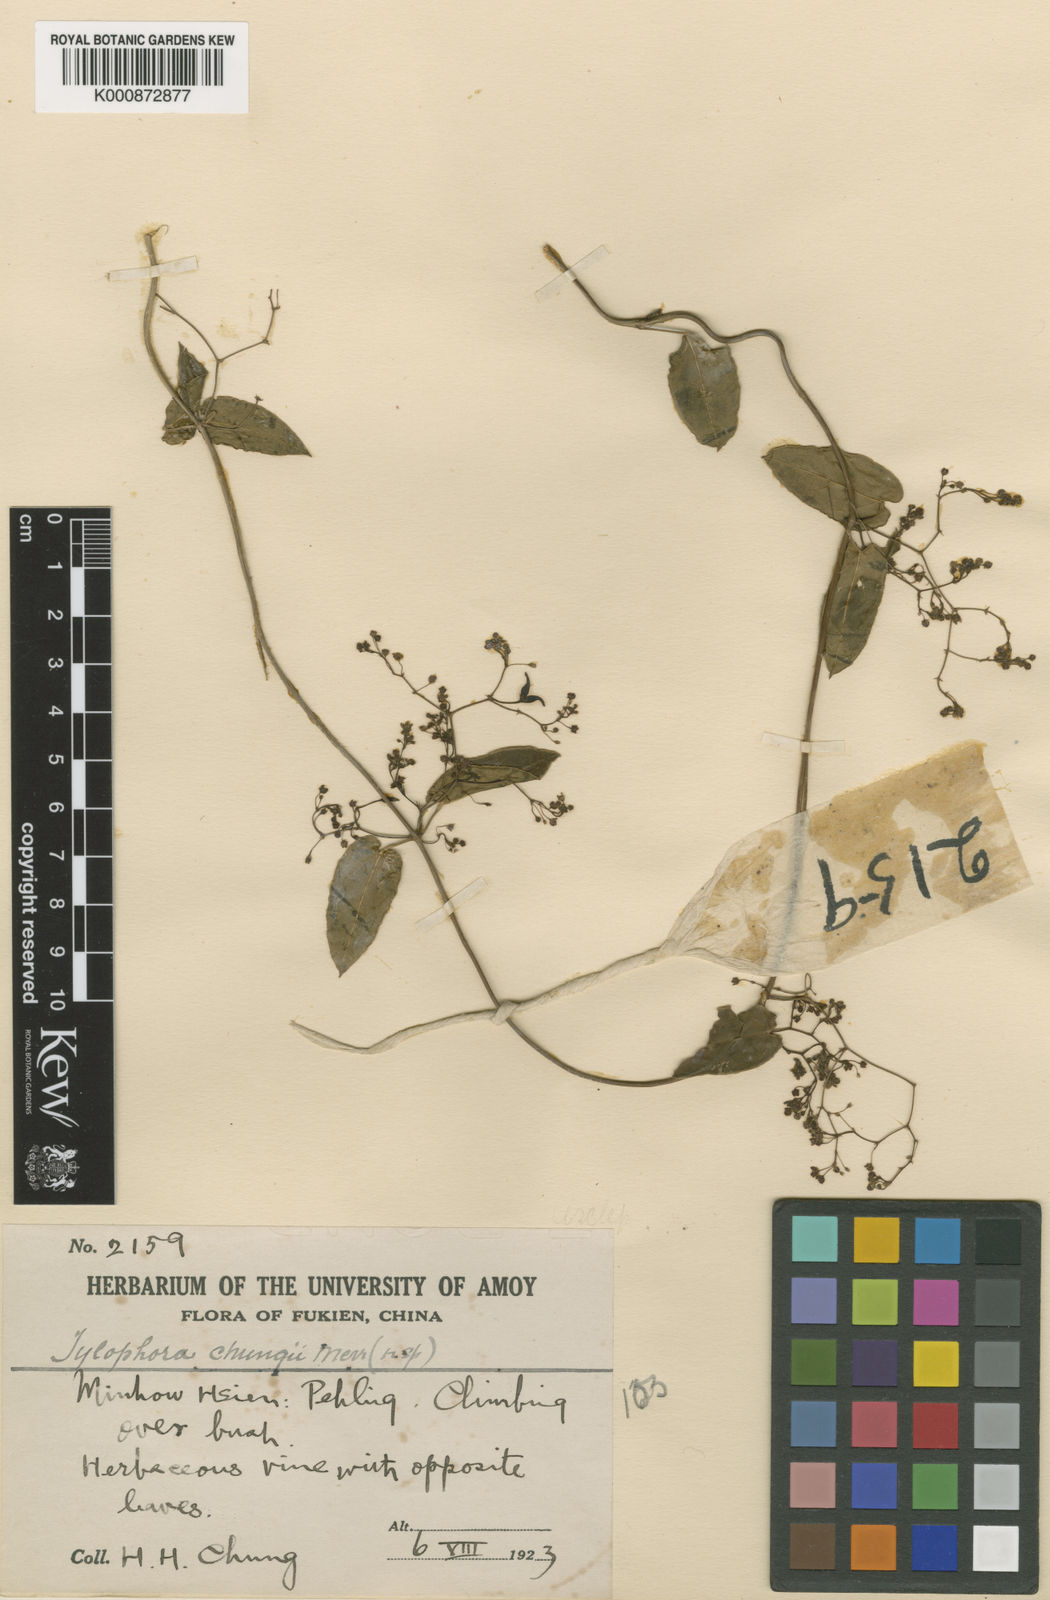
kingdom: Plantae
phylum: Tracheophyta
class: Magnoliopsida
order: Gentianales
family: Apocynaceae
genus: Vincetoxicum
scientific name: Vincetoxicum nikoense
